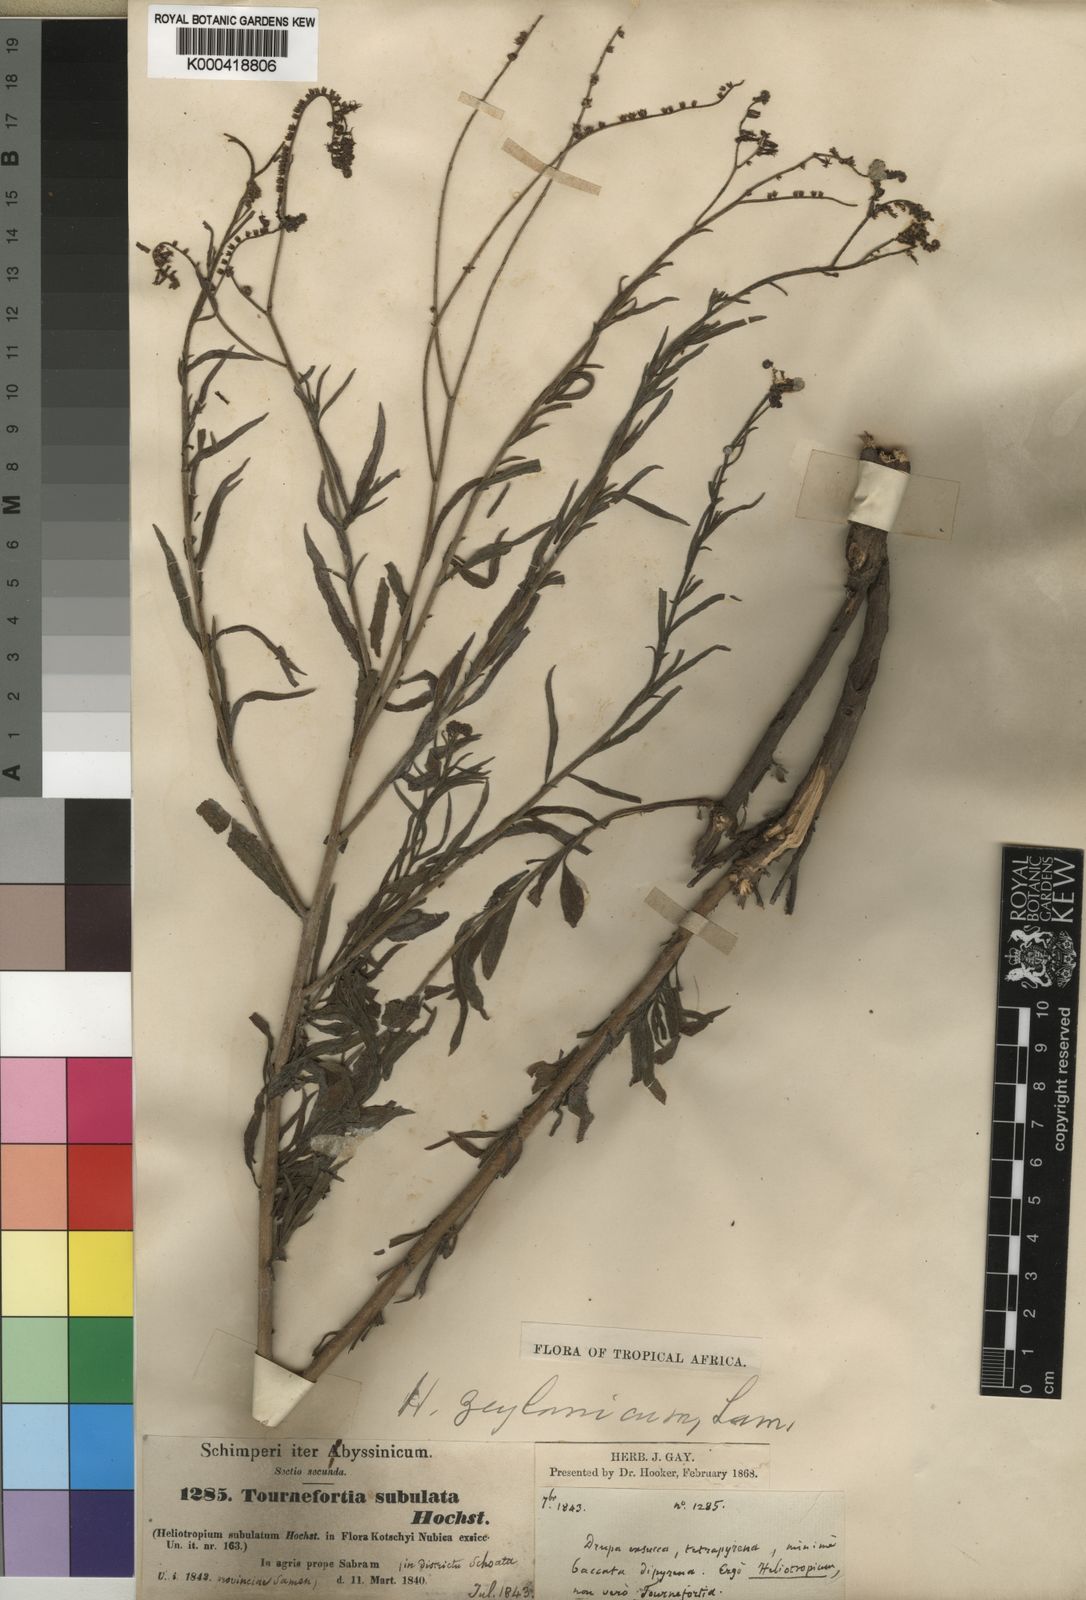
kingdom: Plantae
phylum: Tracheophyta
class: Magnoliopsida
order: Boraginales
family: Heliotropiaceae
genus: Heliotropium
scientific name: Heliotropium zeylanicum
